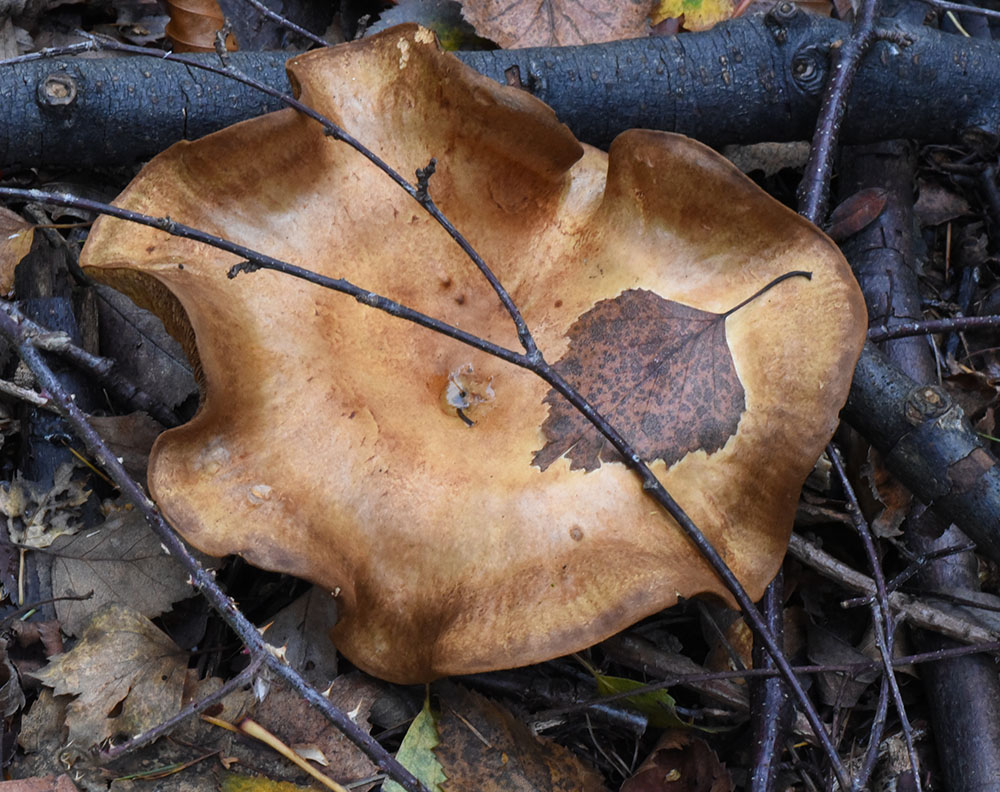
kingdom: Fungi
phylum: Basidiomycota
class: Agaricomycetes
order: Boletales
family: Paxillaceae
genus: Paxillus
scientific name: Paxillus involutus
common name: Brown roll rim
